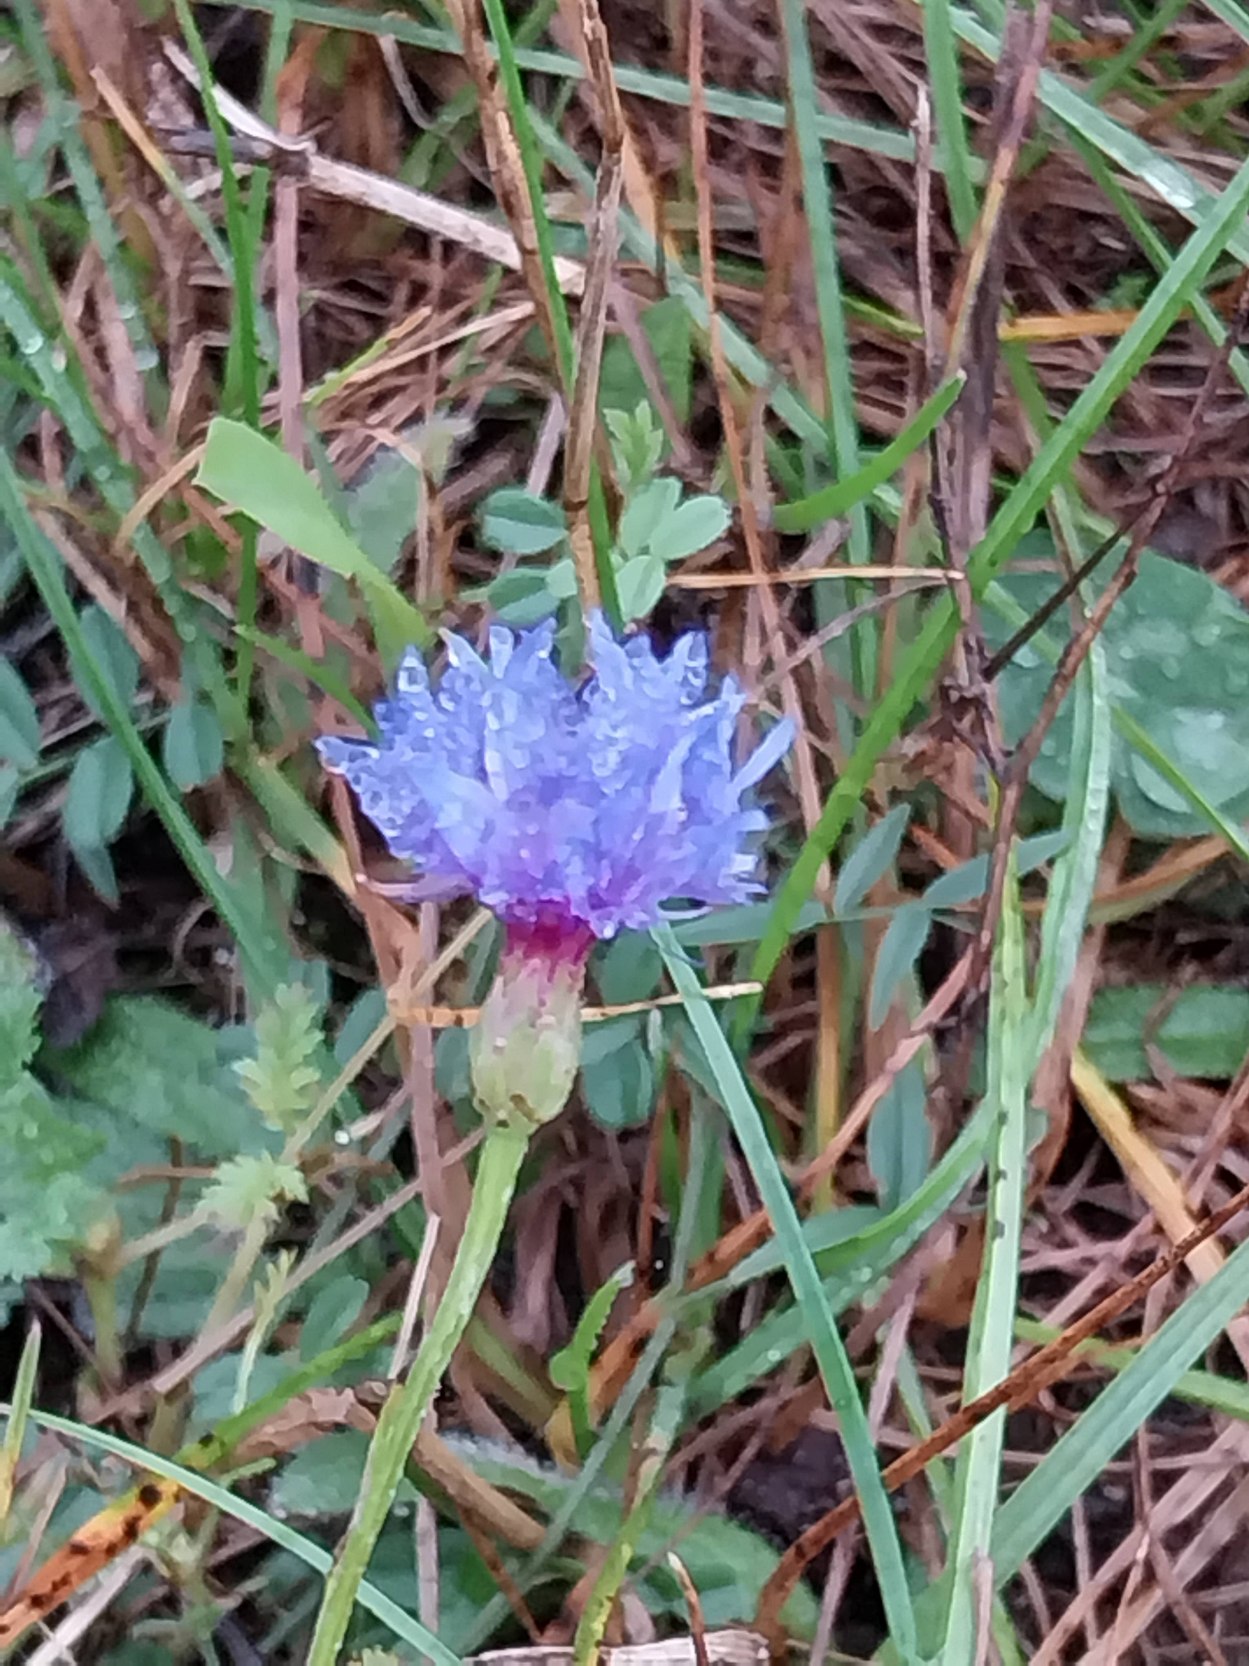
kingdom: Plantae
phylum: Tracheophyta
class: Magnoliopsida
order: Asterales
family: Asteraceae
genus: Centaurea
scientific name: Centaurea cyanus
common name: Kornblomst
